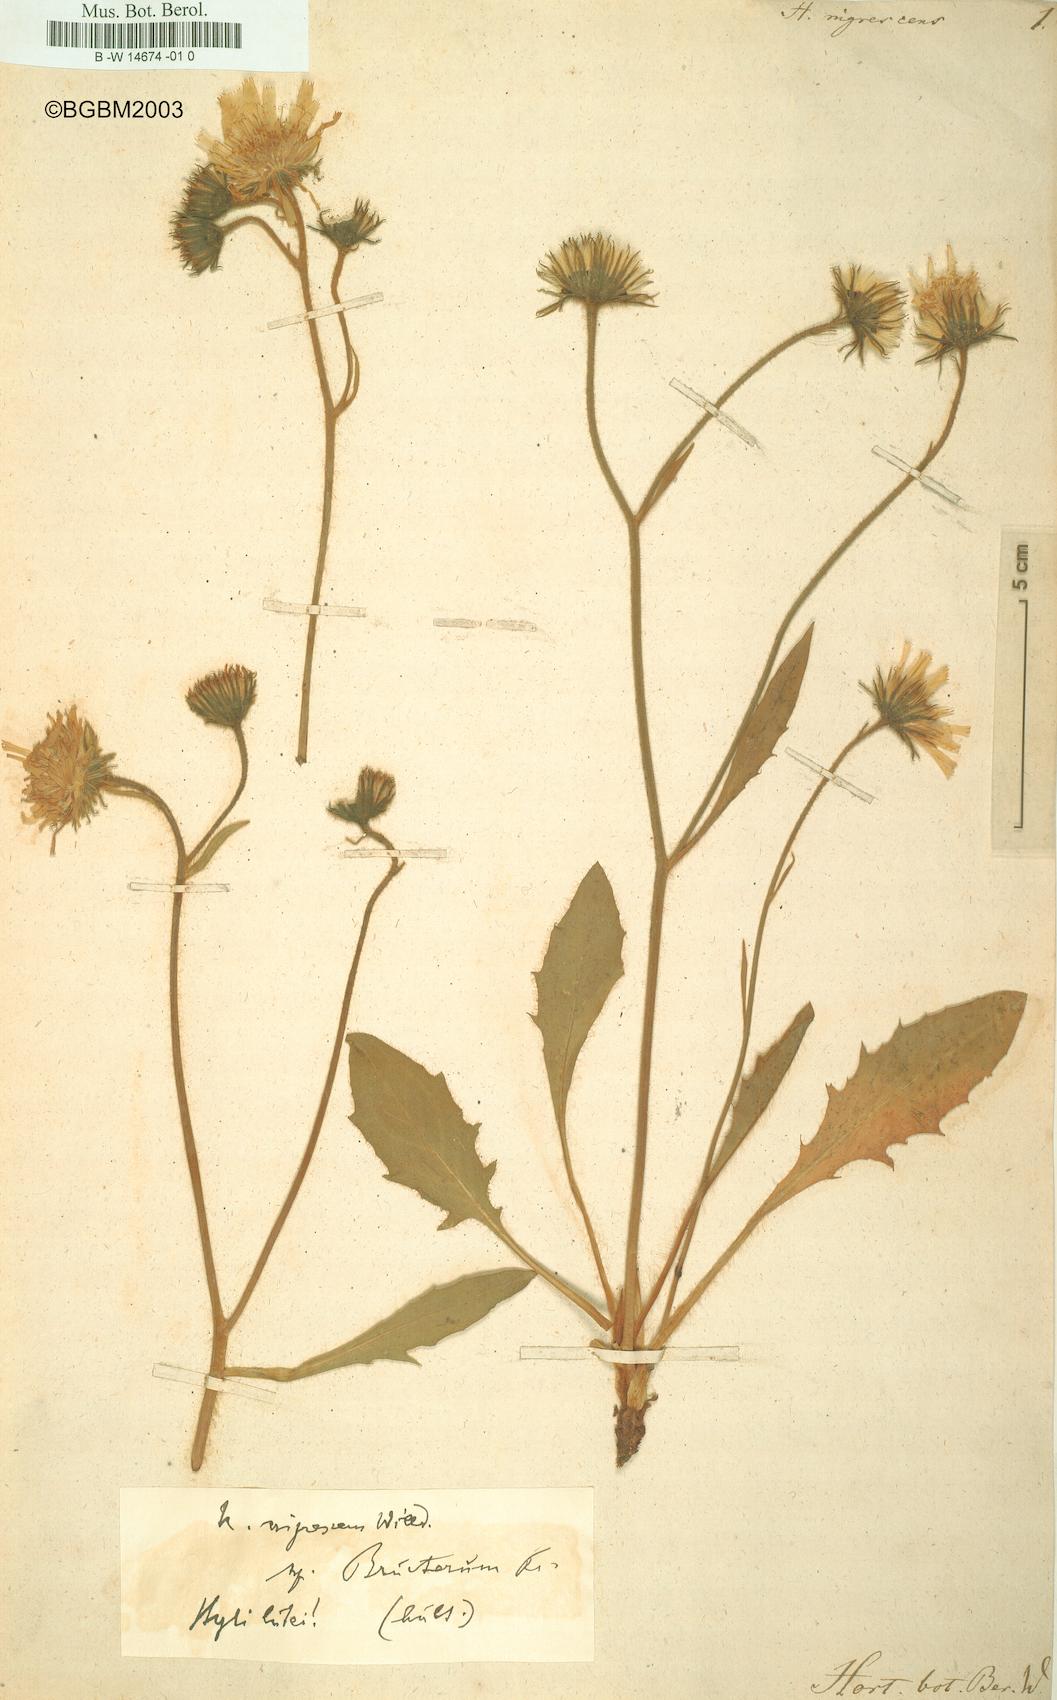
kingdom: Plantae
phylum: Tracheophyta
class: Magnoliopsida
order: Asterales
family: Asteraceae
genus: Hieracium
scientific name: Hieracium nigrescens
